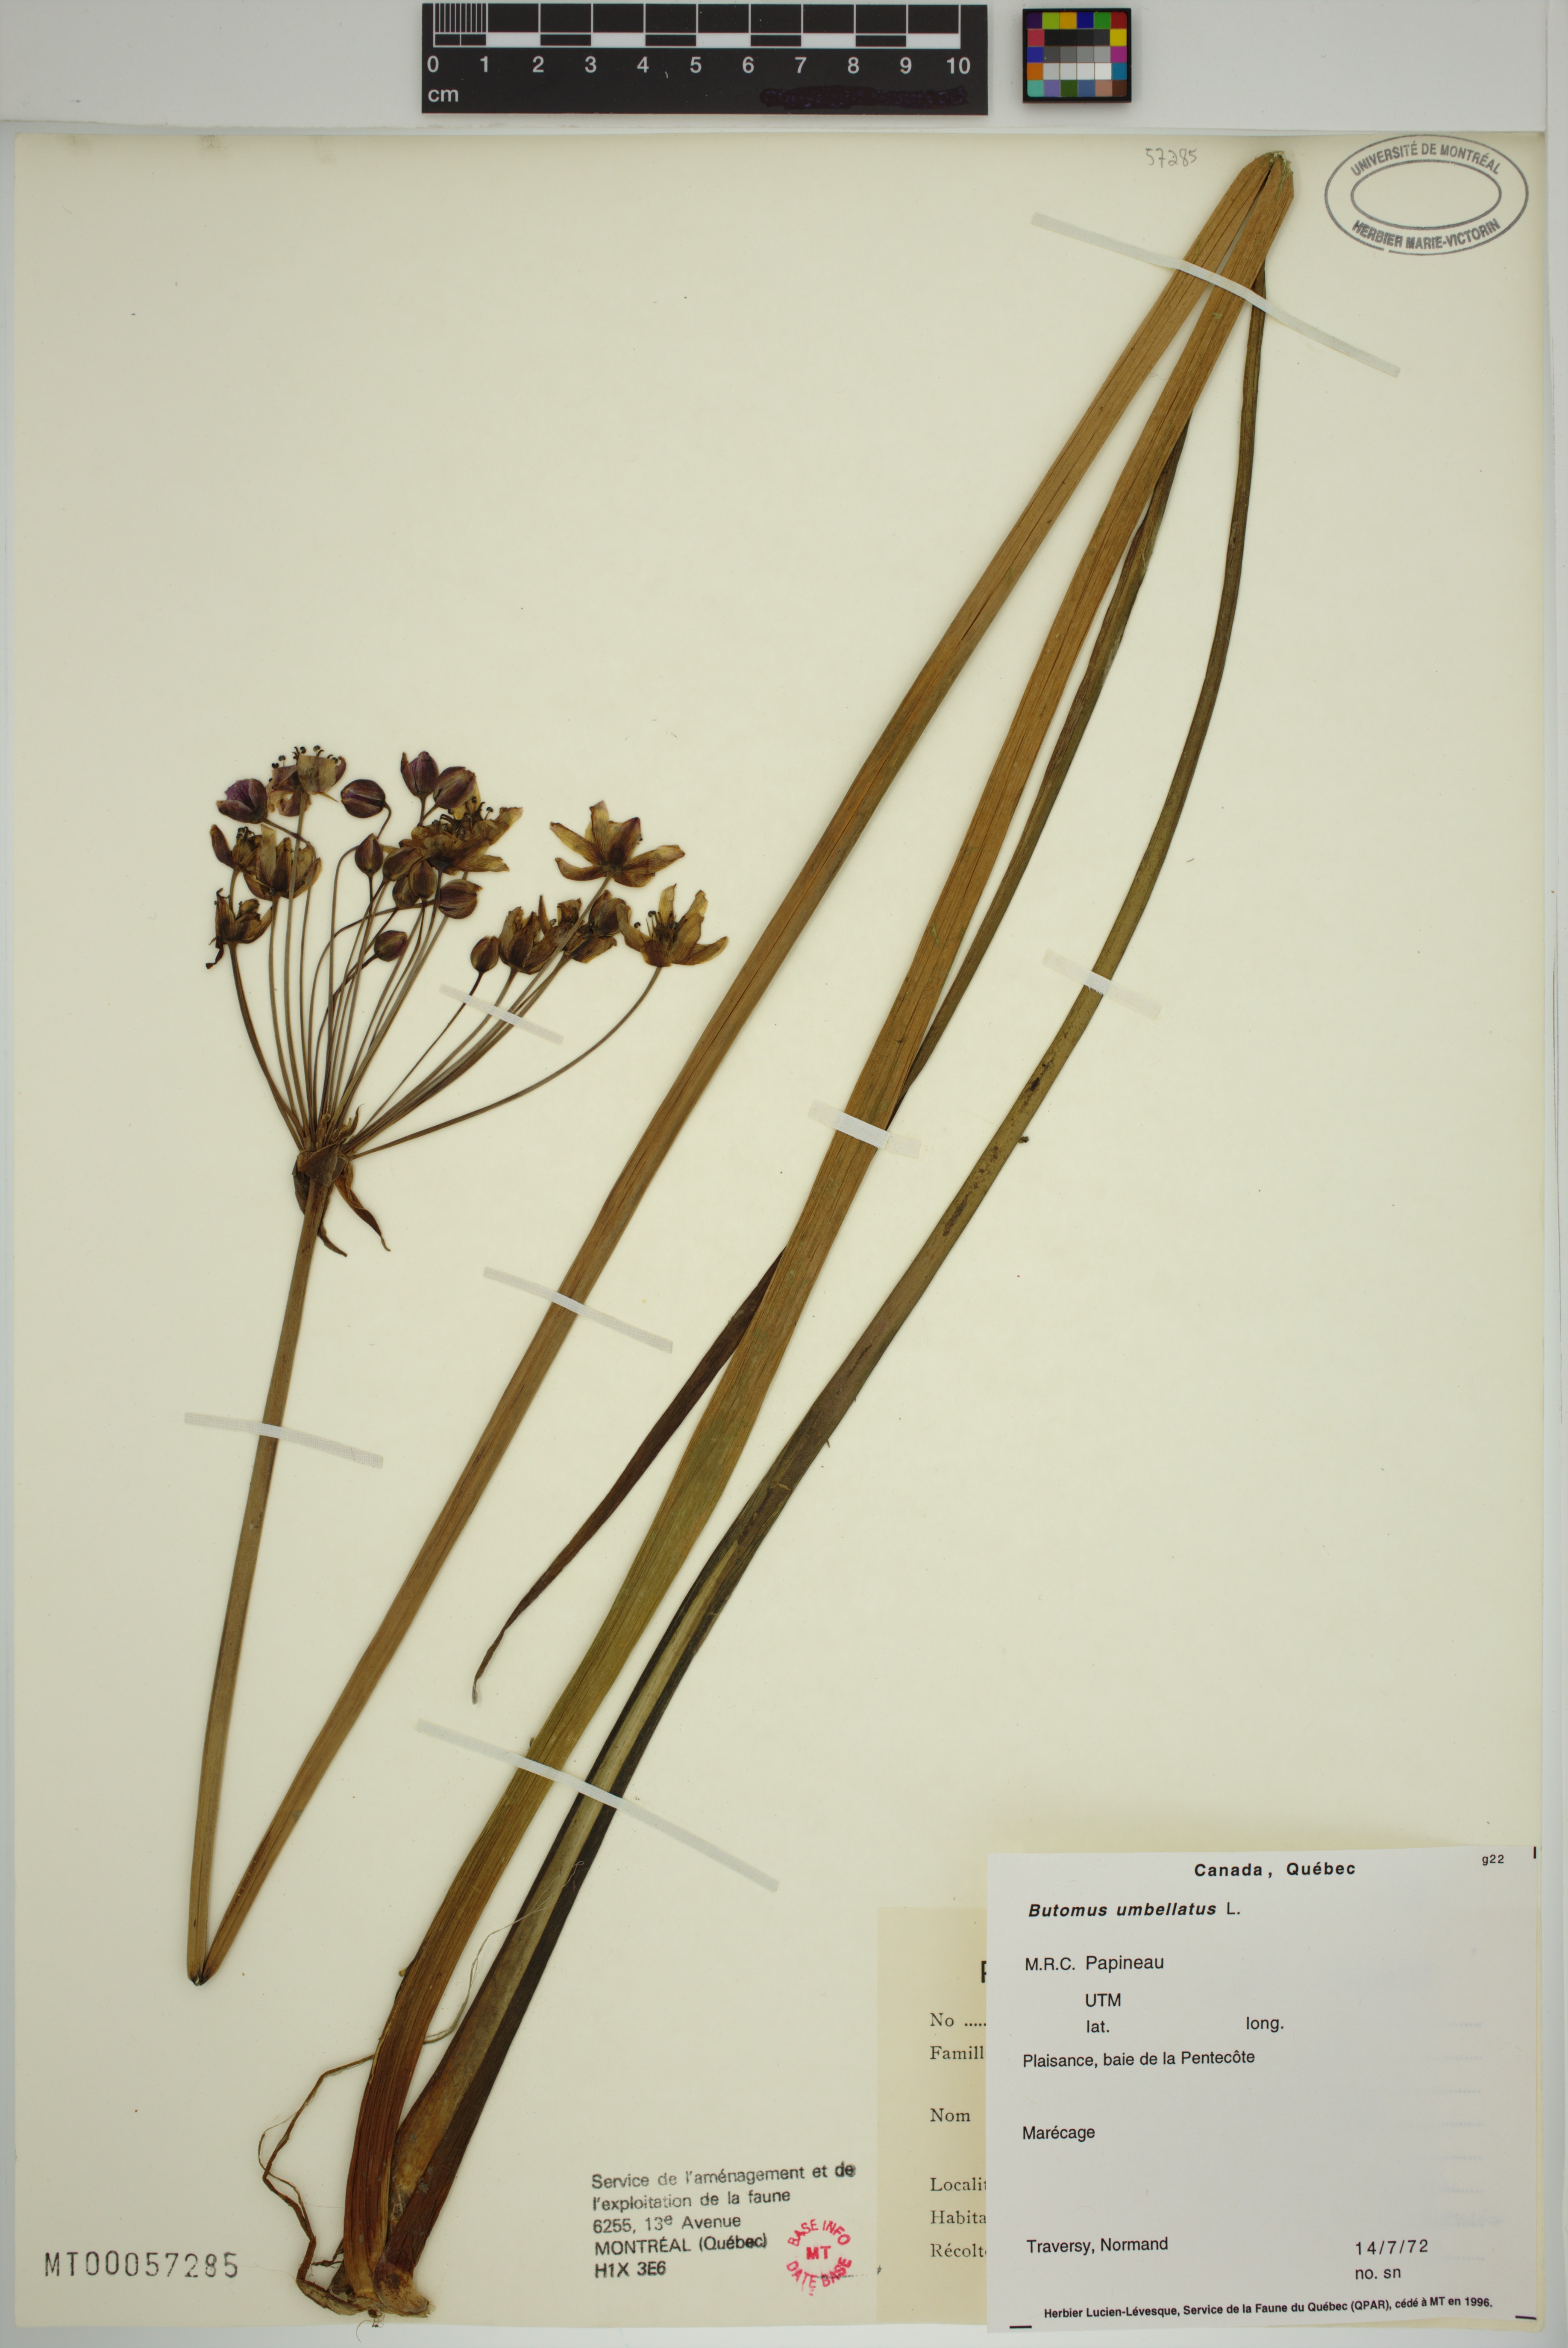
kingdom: Plantae
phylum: Tracheophyta
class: Liliopsida
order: Alismatales
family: Butomaceae
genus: Butomus
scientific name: Butomus umbellatus
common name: Flowering-rush
